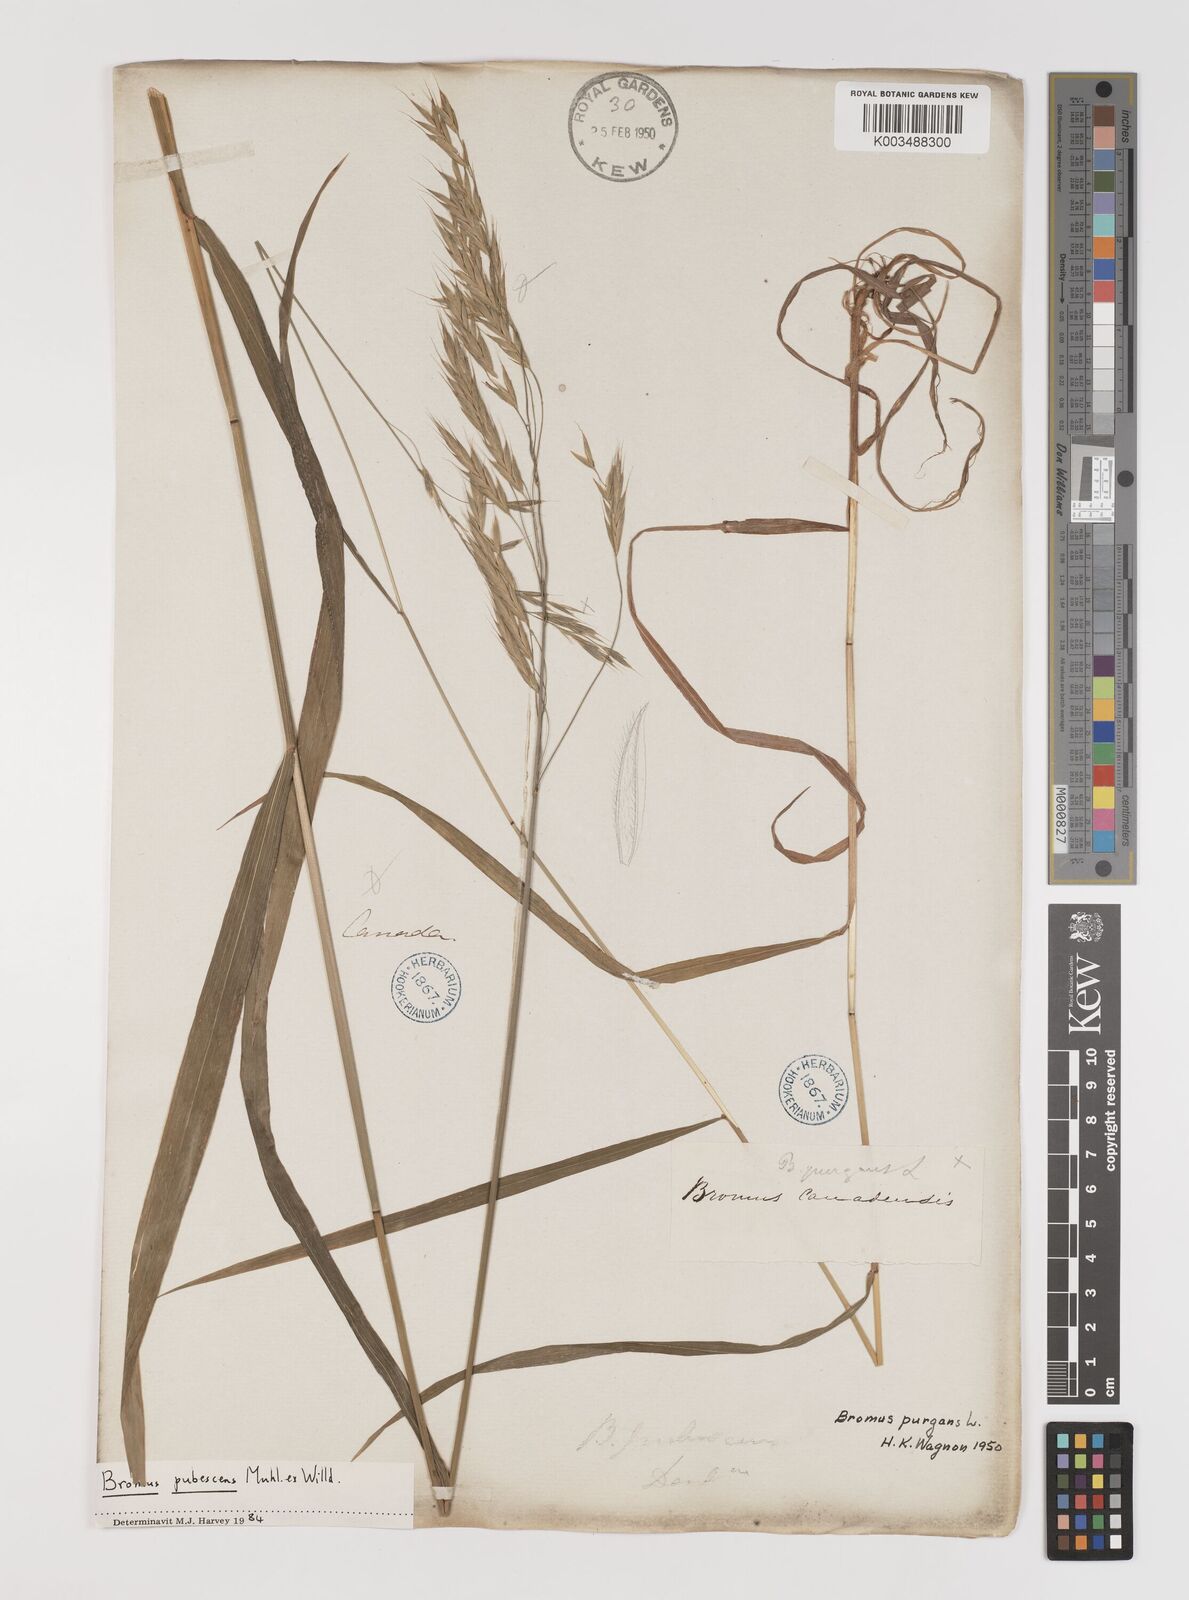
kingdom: Plantae
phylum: Tracheophyta
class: Liliopsida
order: Poales
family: Poaceae
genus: Bromus
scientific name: Bromus pubescens
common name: Hairy wood brome grass
